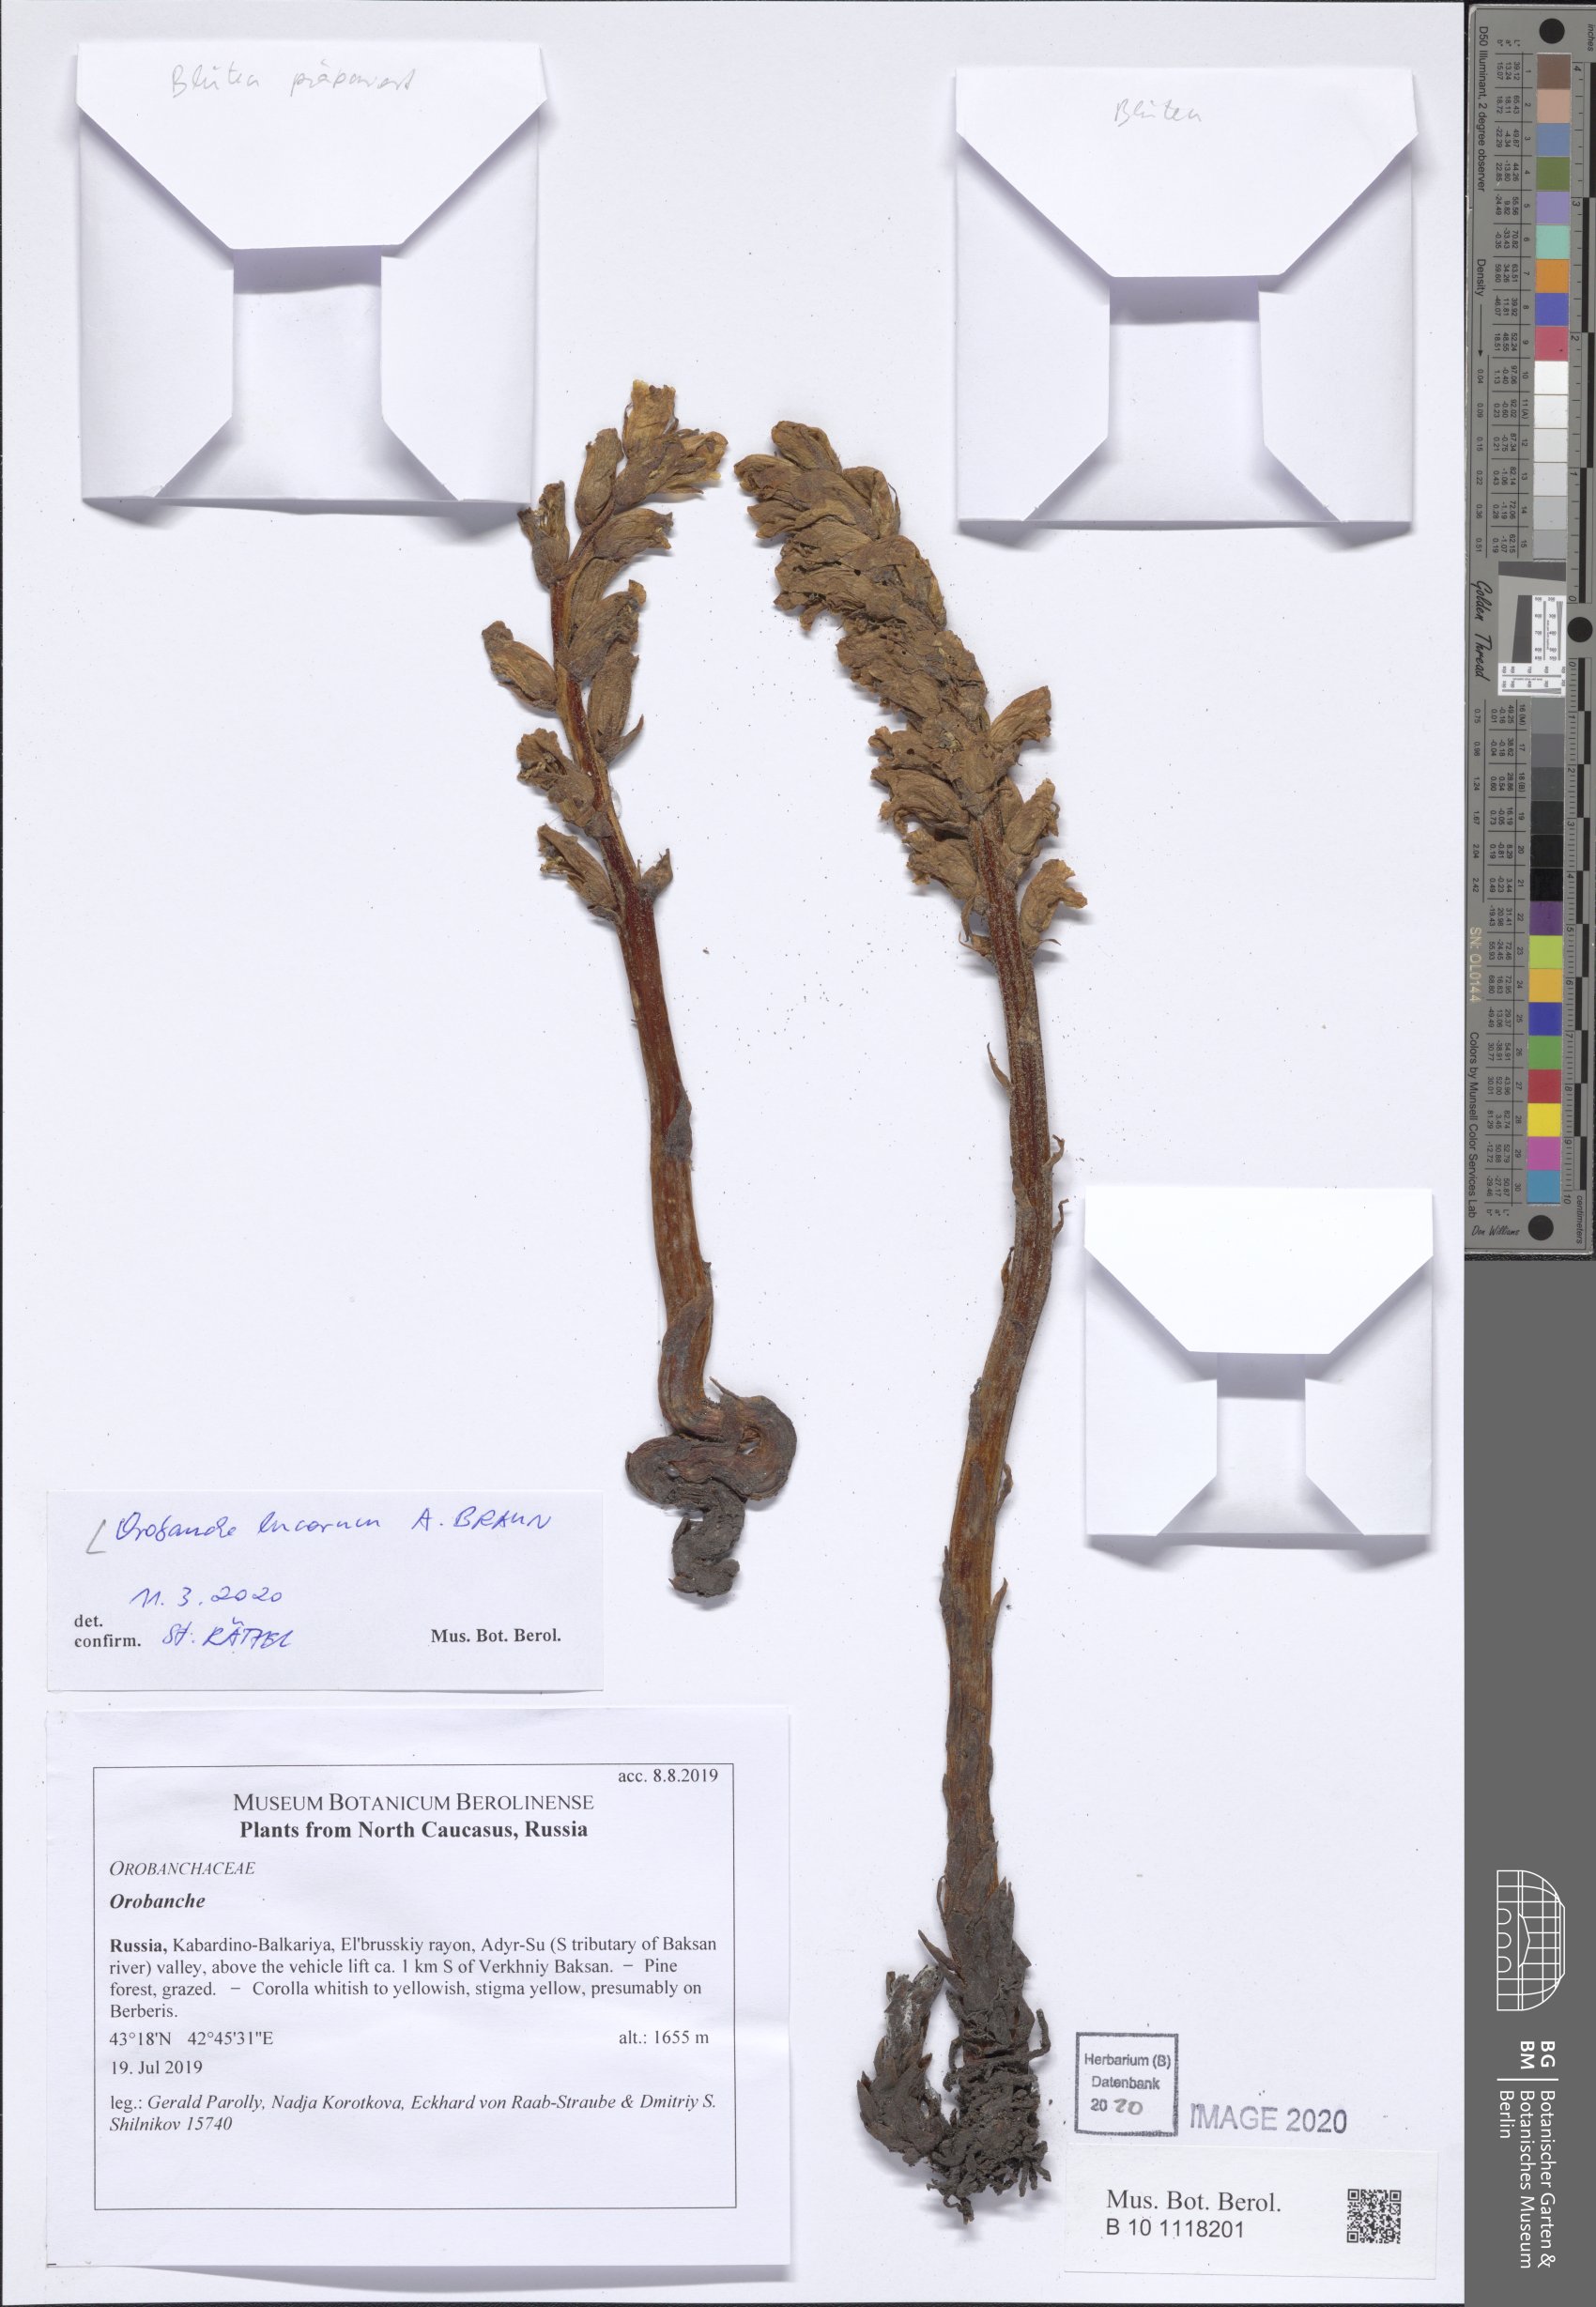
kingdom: Plantae
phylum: Tracheophyta
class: Magnoliopsida
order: Lamiales
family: Orobanchaceae
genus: Orobanche
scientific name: Orobanche lucorum
